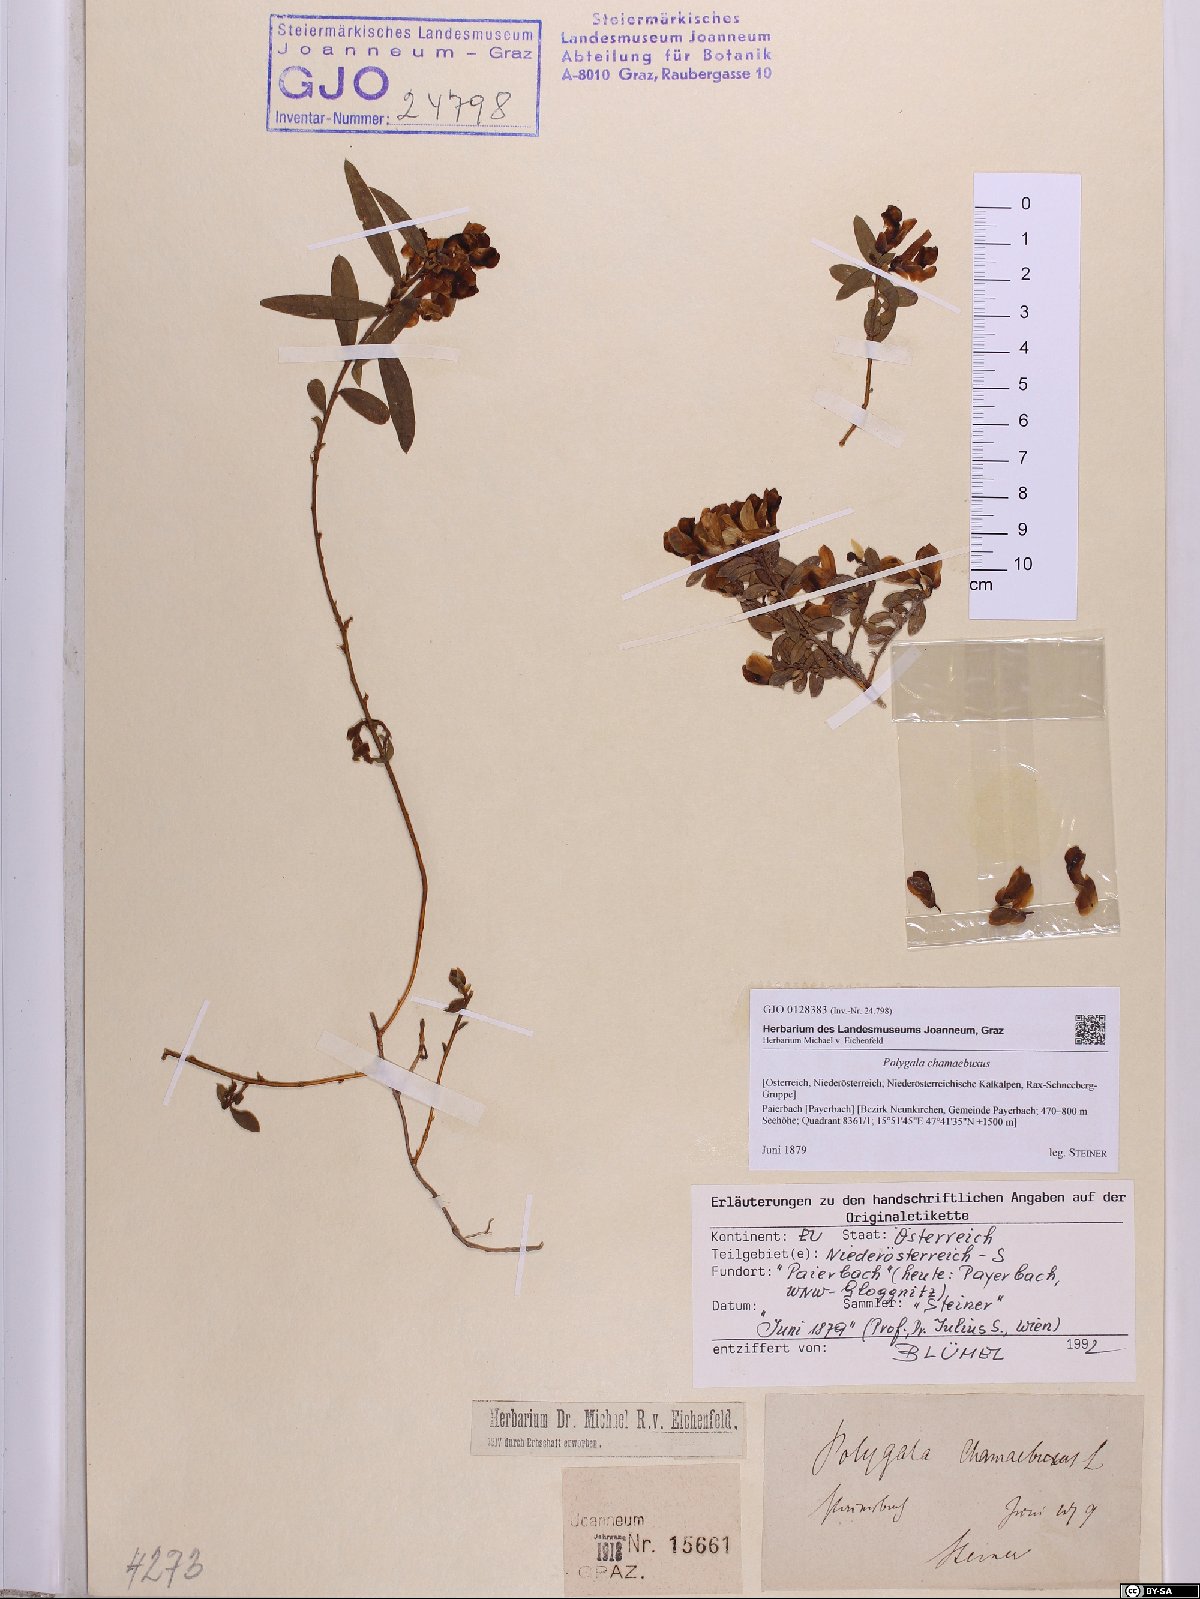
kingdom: Plantae
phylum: Tracheophyta
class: Magnoliopsida
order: Fabales
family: Polygalaceae
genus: Polygaloides
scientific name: Polygaloides chamaebuxus
